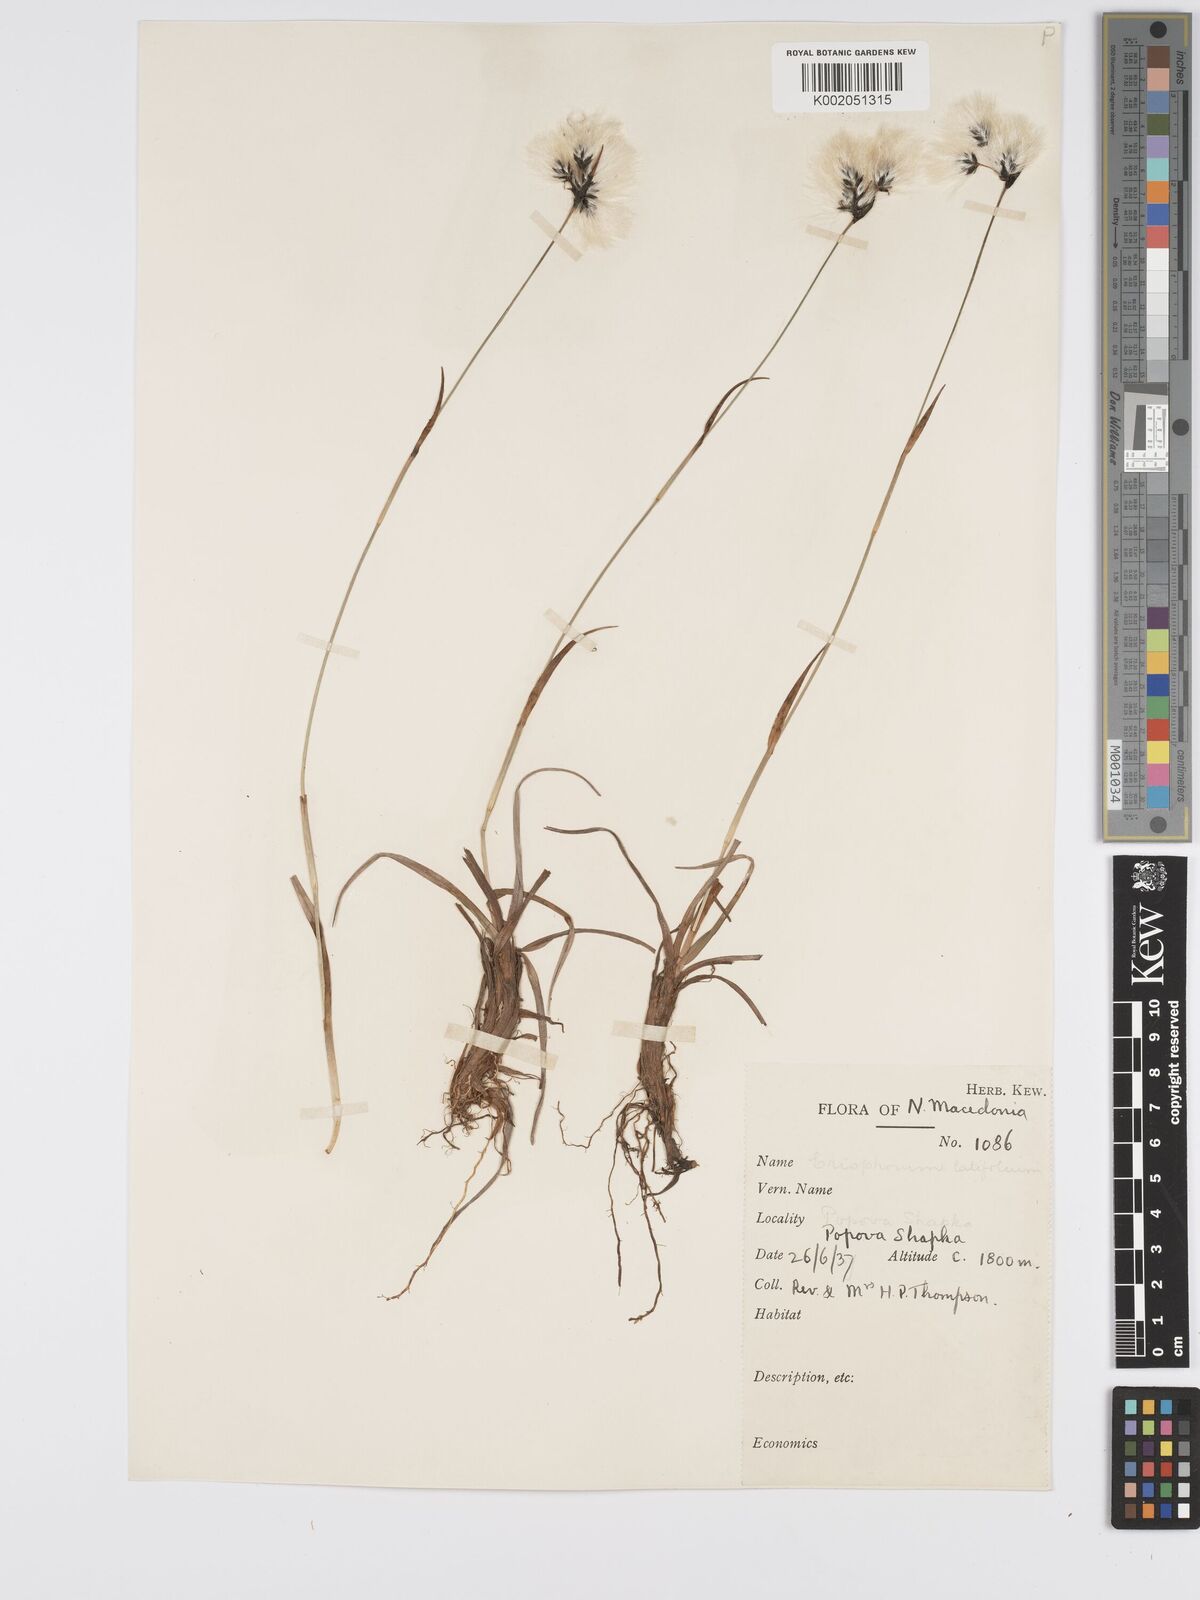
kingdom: Plantae
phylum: Tracheophyta
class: Liliopsida
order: Poales
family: Cyperaceae
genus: Eriophorum
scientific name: Eriophorum latifolium
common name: Broad-leaved cottongrass
